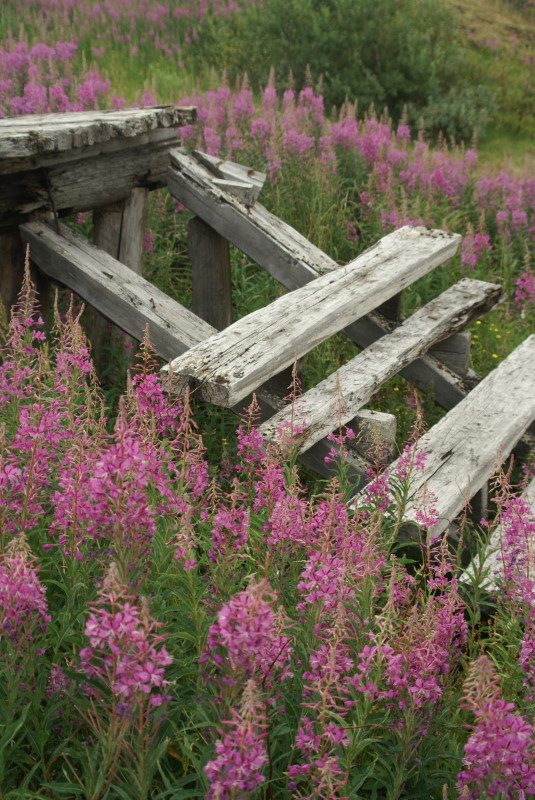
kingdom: Plantae
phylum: Tracheophyta
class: Magnoliopsida
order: Myrtales
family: Onagraceae
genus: Chamaenerion
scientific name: Chamaenerion angustifolium
